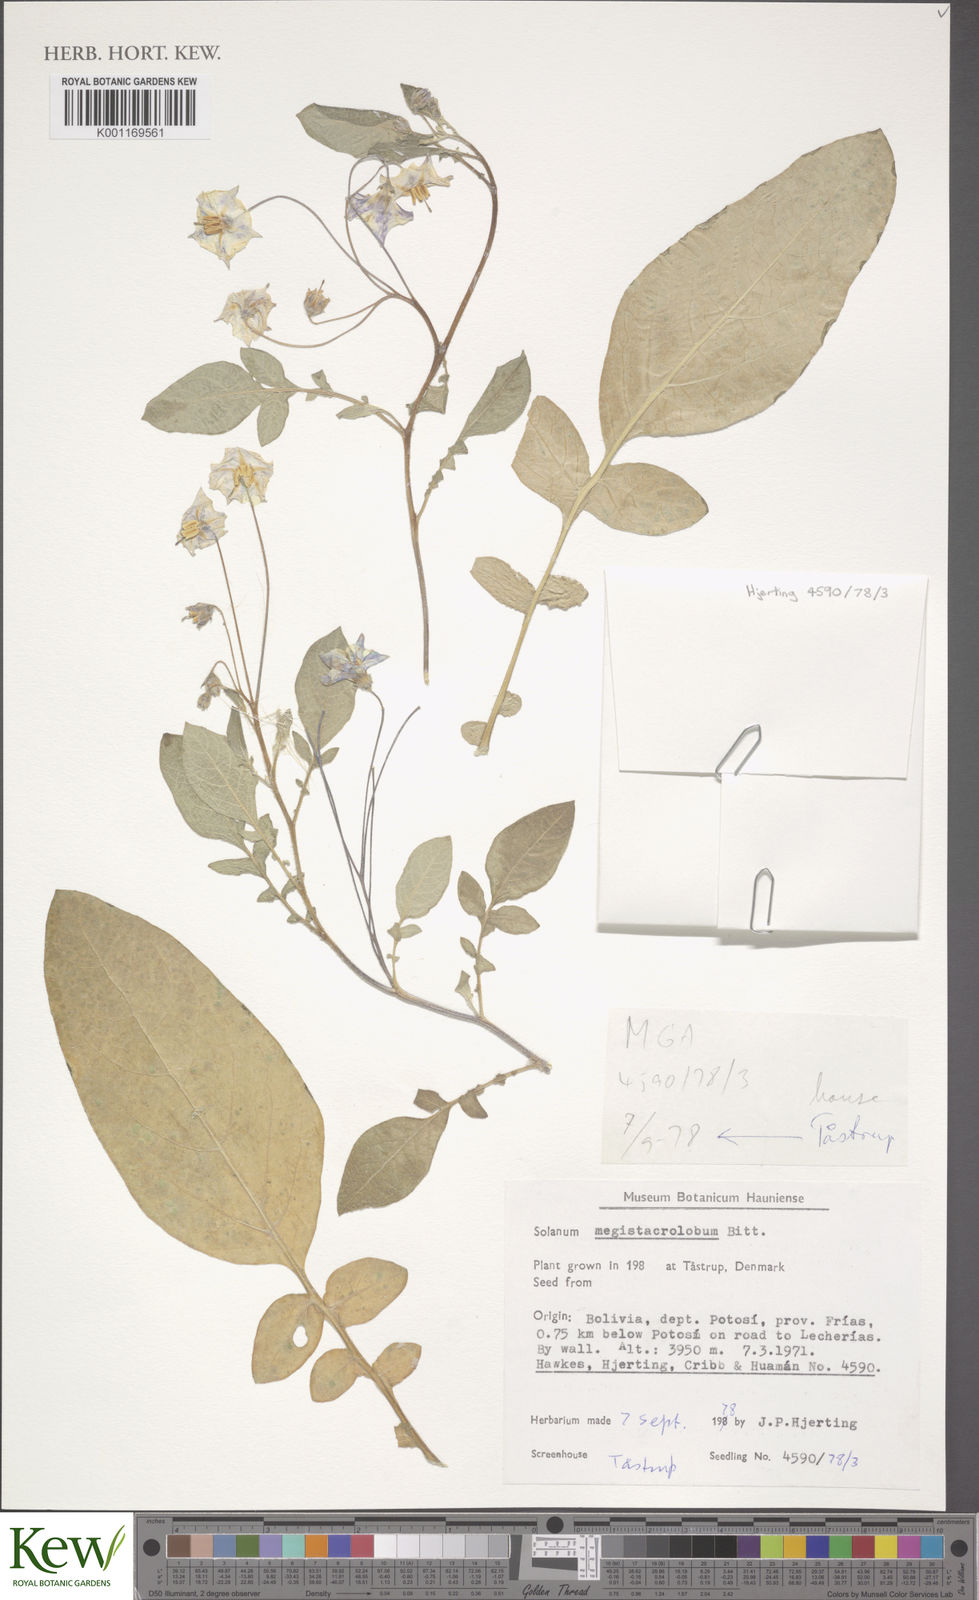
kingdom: Plantae
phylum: Tracheophyta
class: Magnoliopsida
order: Solanales
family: Solanaceae
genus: Solanum
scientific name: Solanum boliviense
